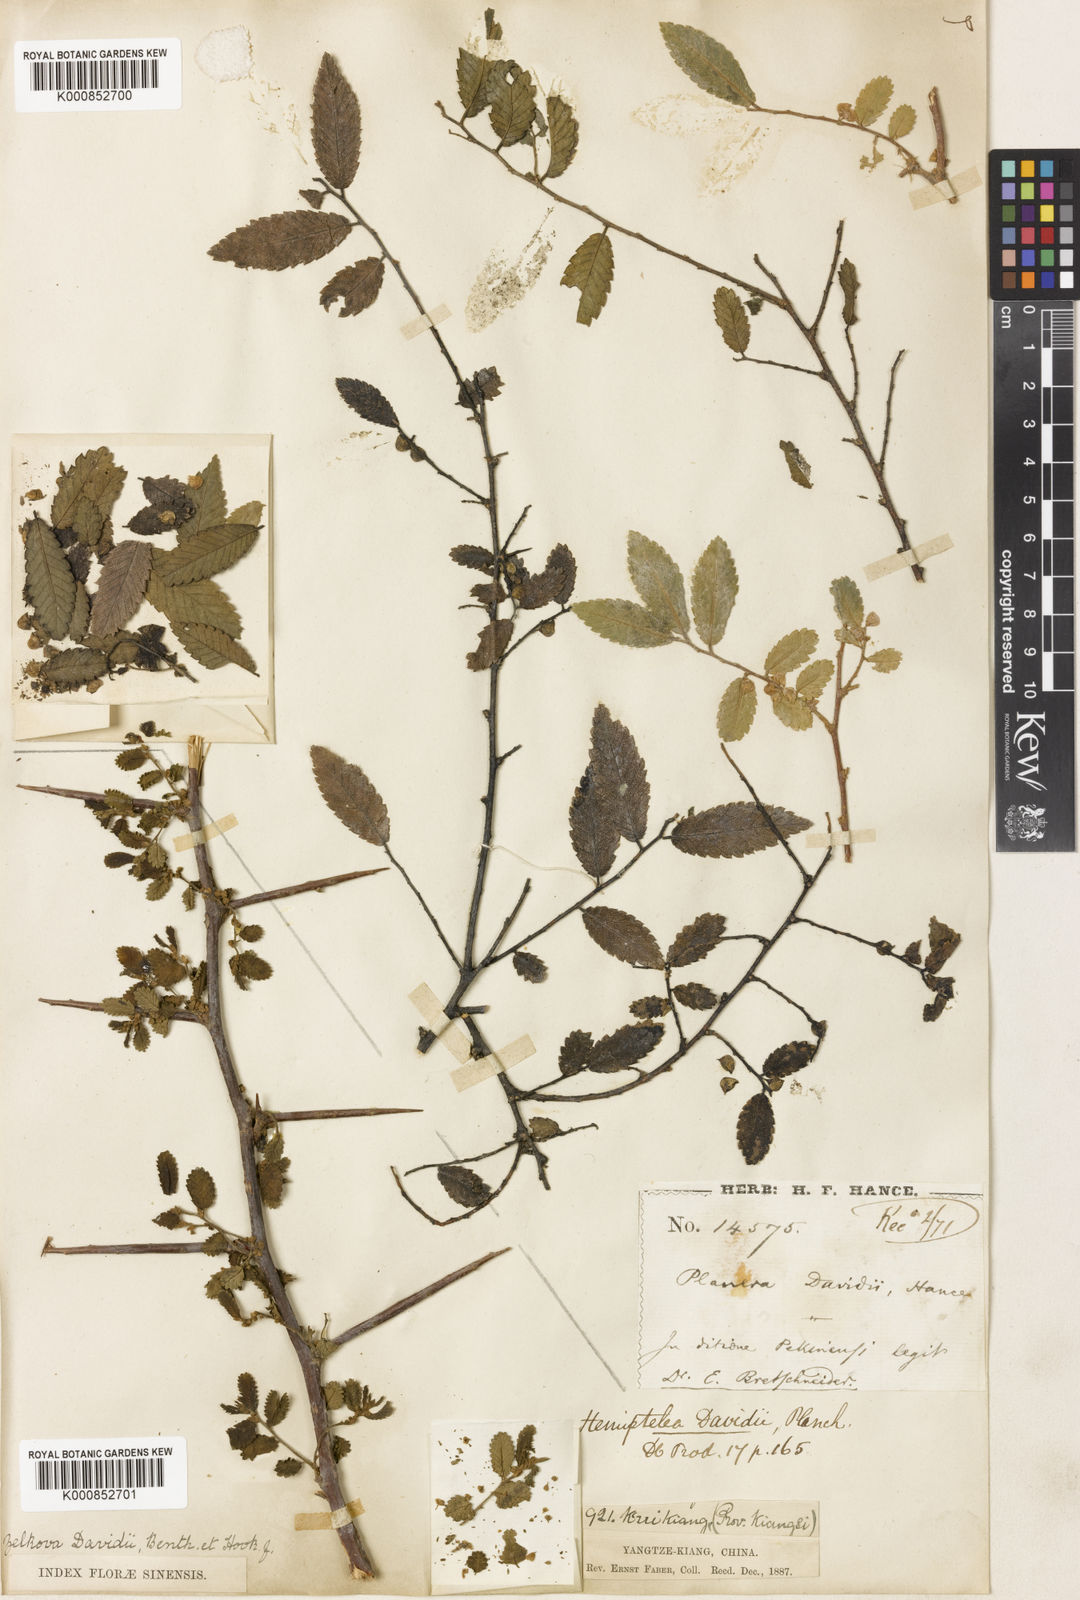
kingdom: Plantae
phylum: Tracheophyta
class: Magnoliopsida
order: Rosales
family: Ulmaceae
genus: Hemiptelea
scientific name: Hemiptelea davidii
